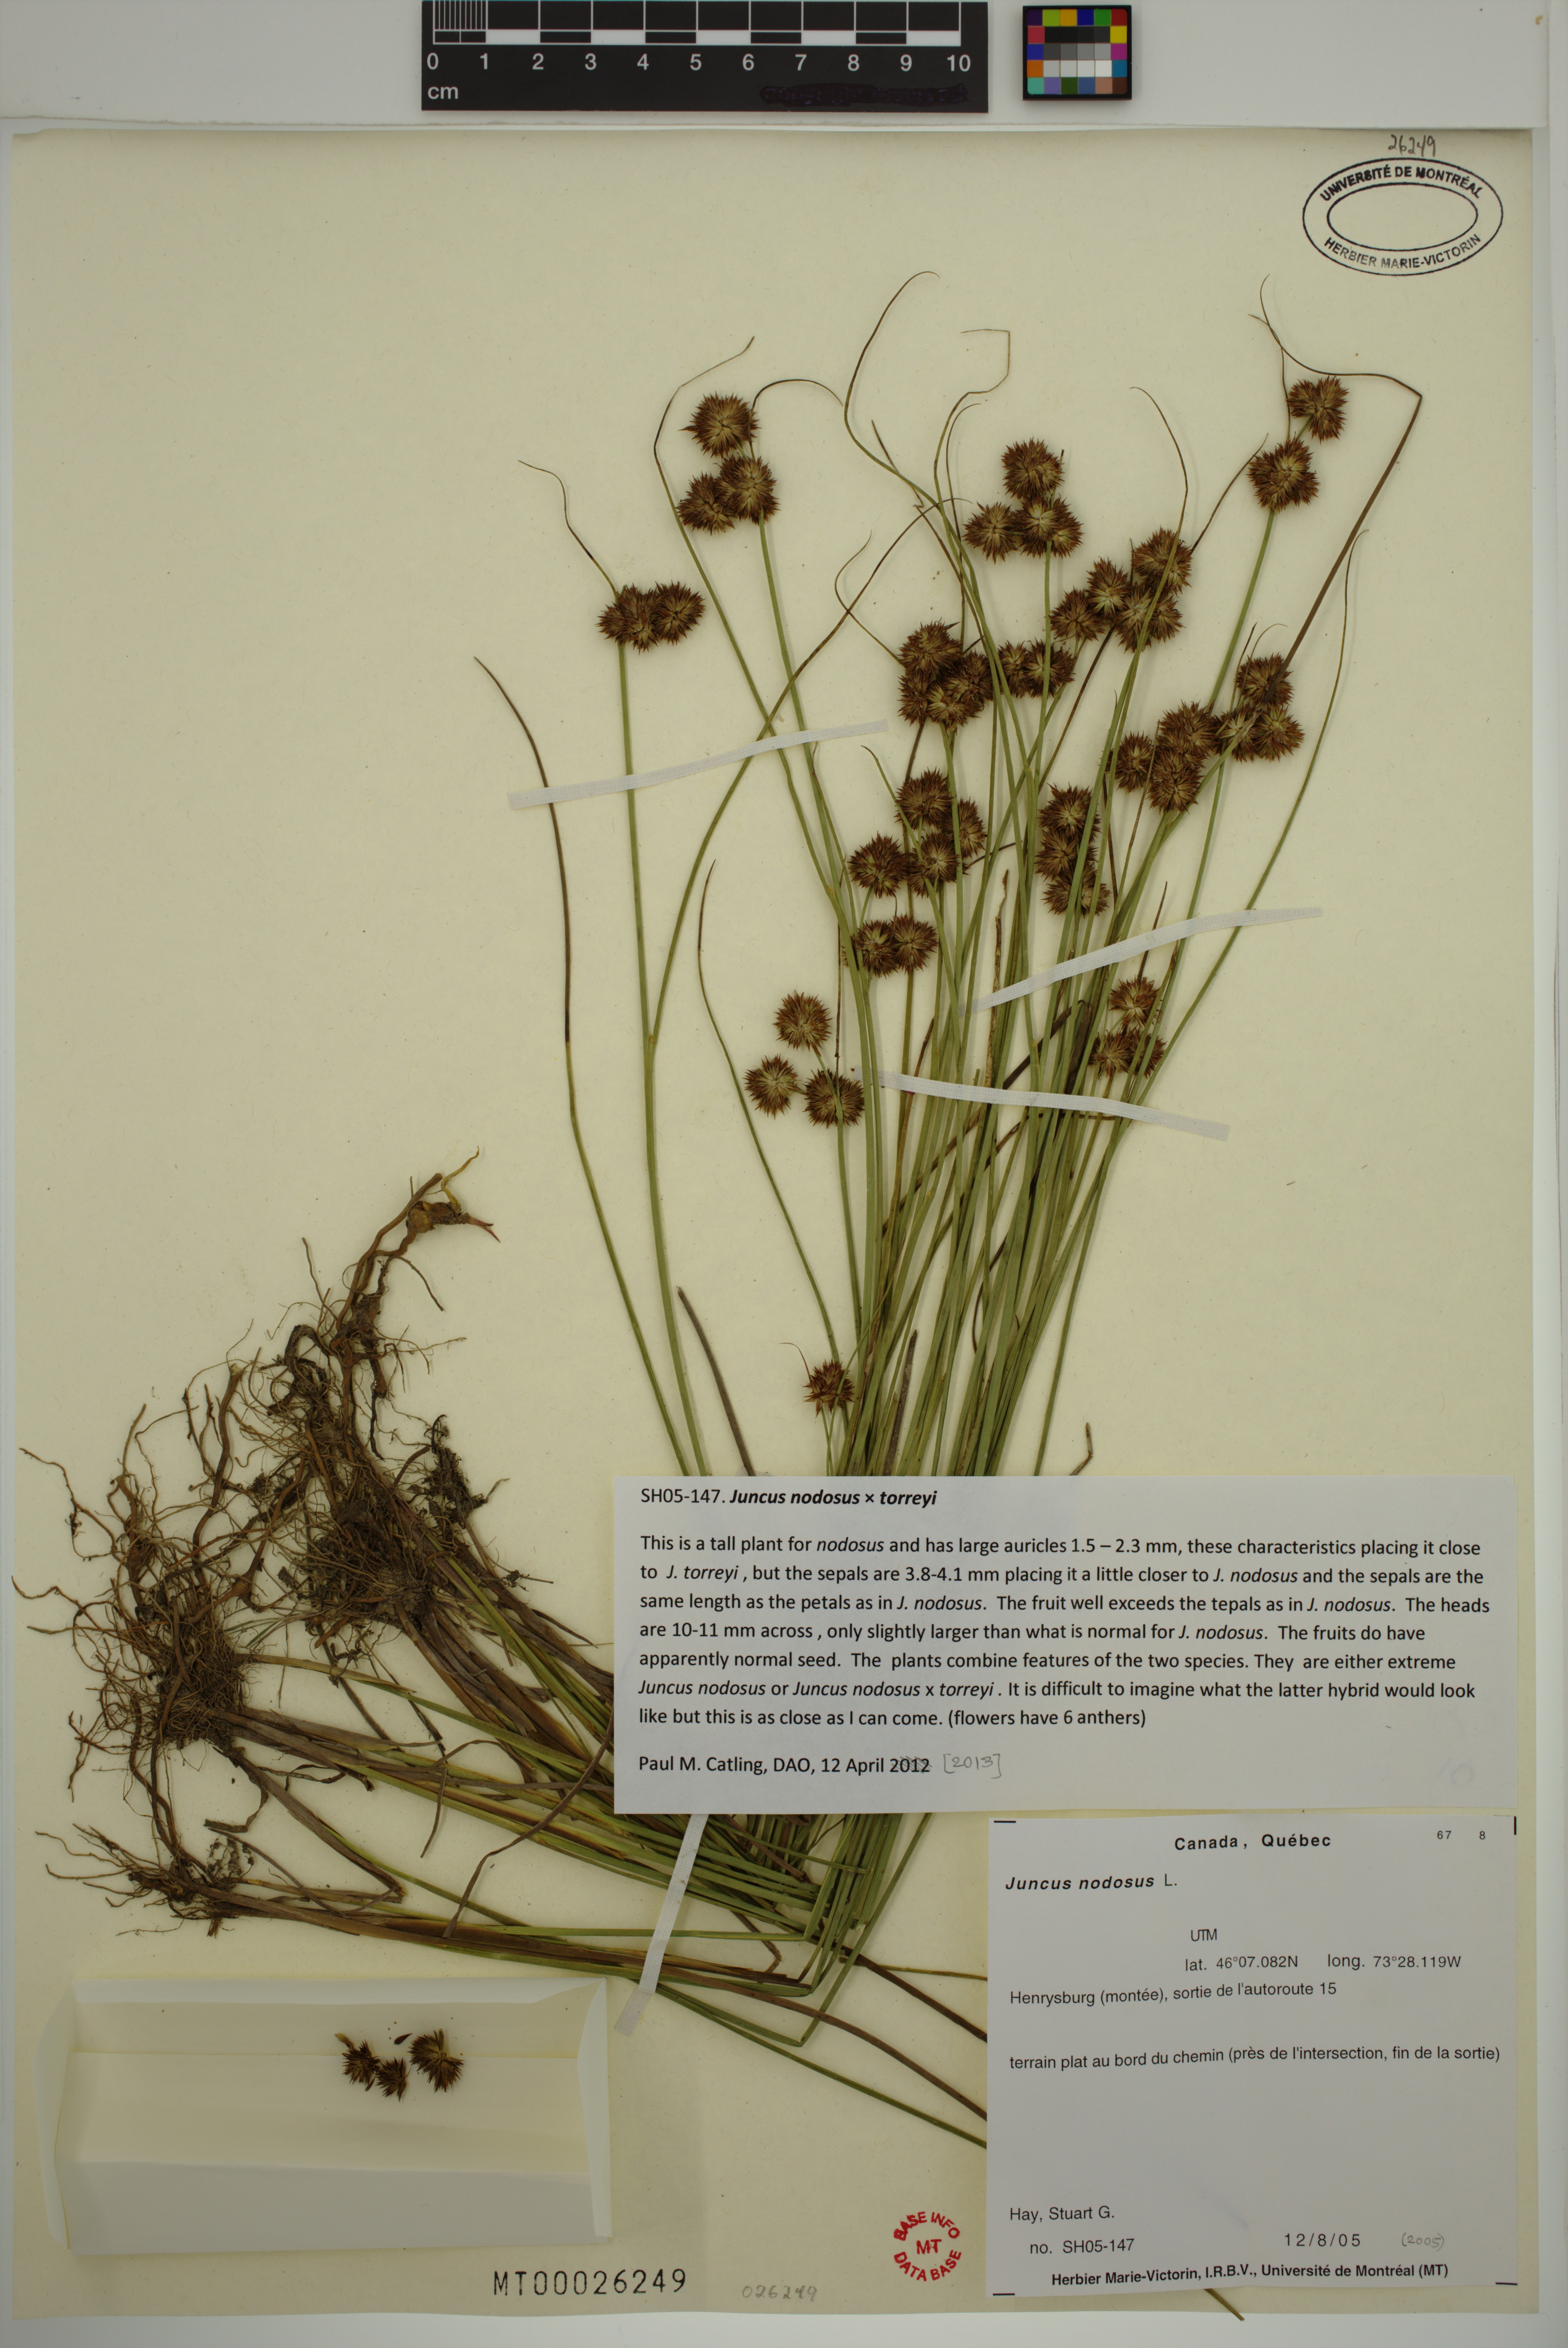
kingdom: Plantae
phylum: Tracheophyta
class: Liliopsida
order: Poales
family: Juncaceae
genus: Juncus
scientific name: Juncus nodosus
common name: Knotted rush
